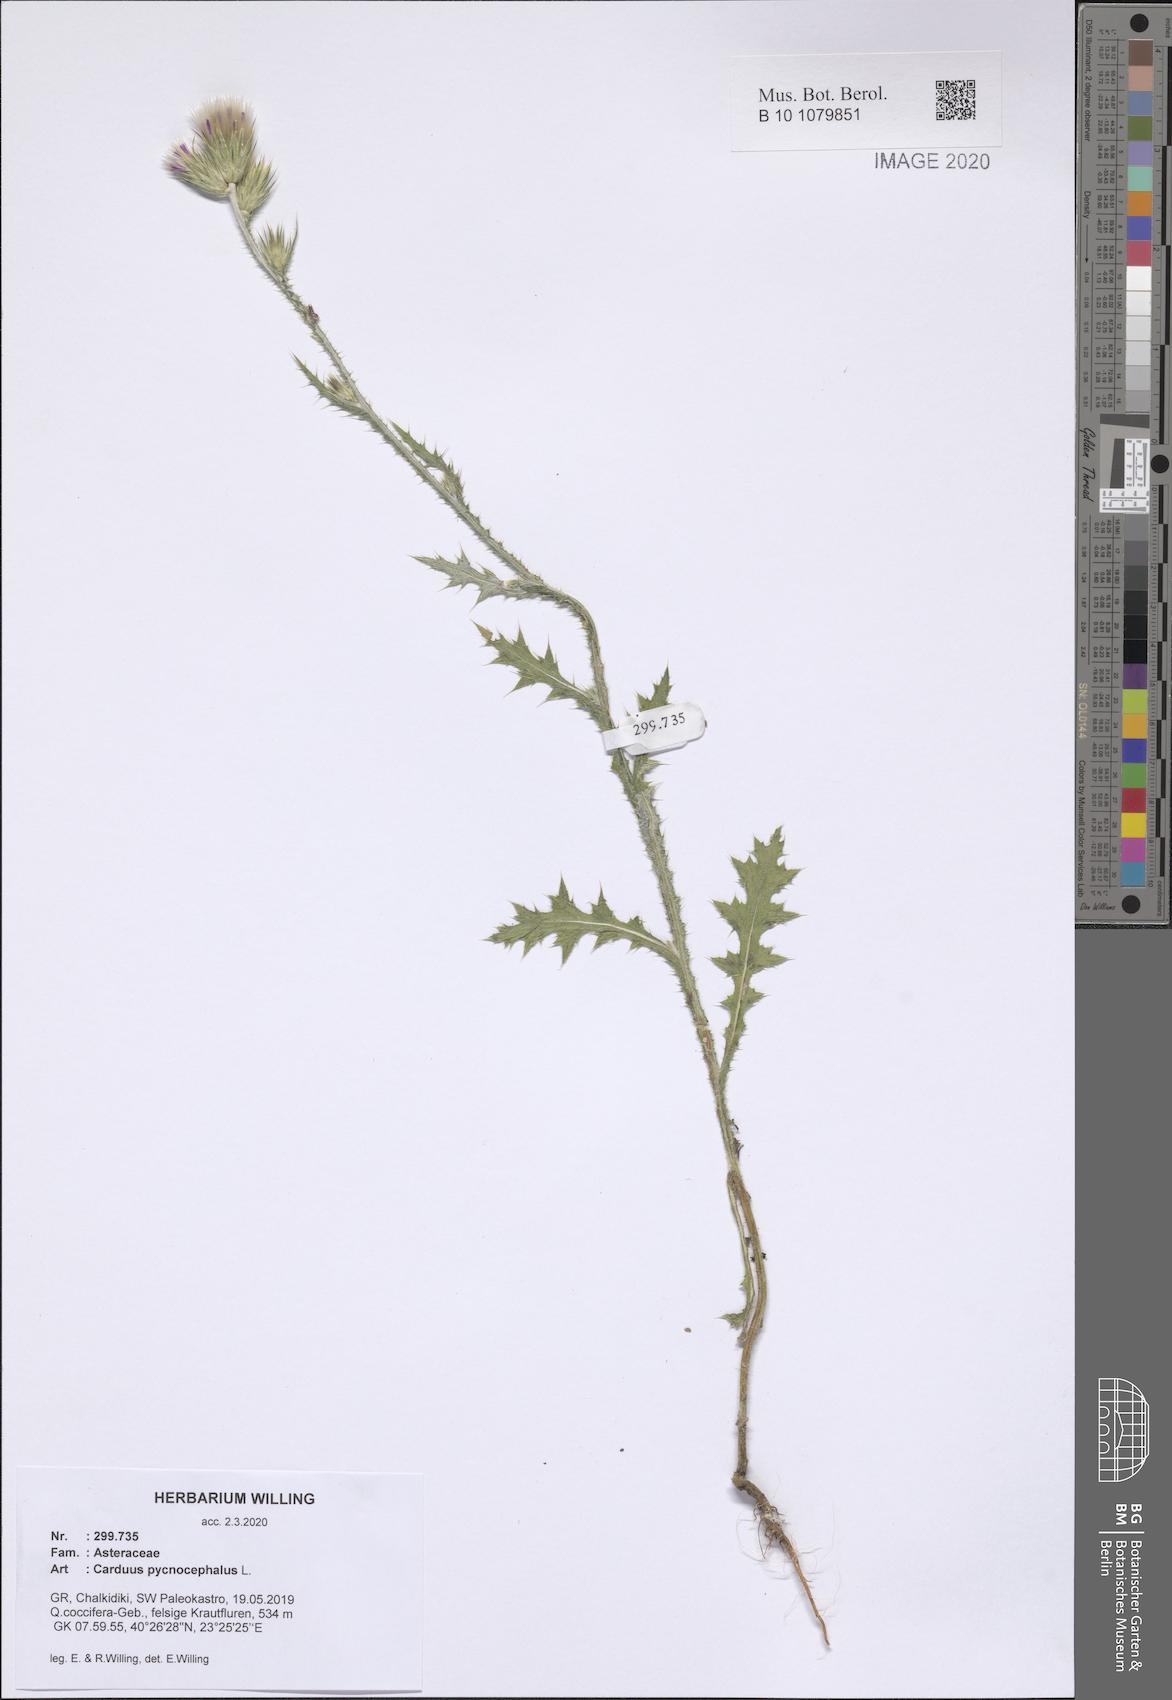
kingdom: Plantae
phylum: Tracheophyta
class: Magnoliopsida
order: Asterales
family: Asteraceae
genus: Carduus
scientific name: Carduus pycnocephalus
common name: Plymouth thistle
